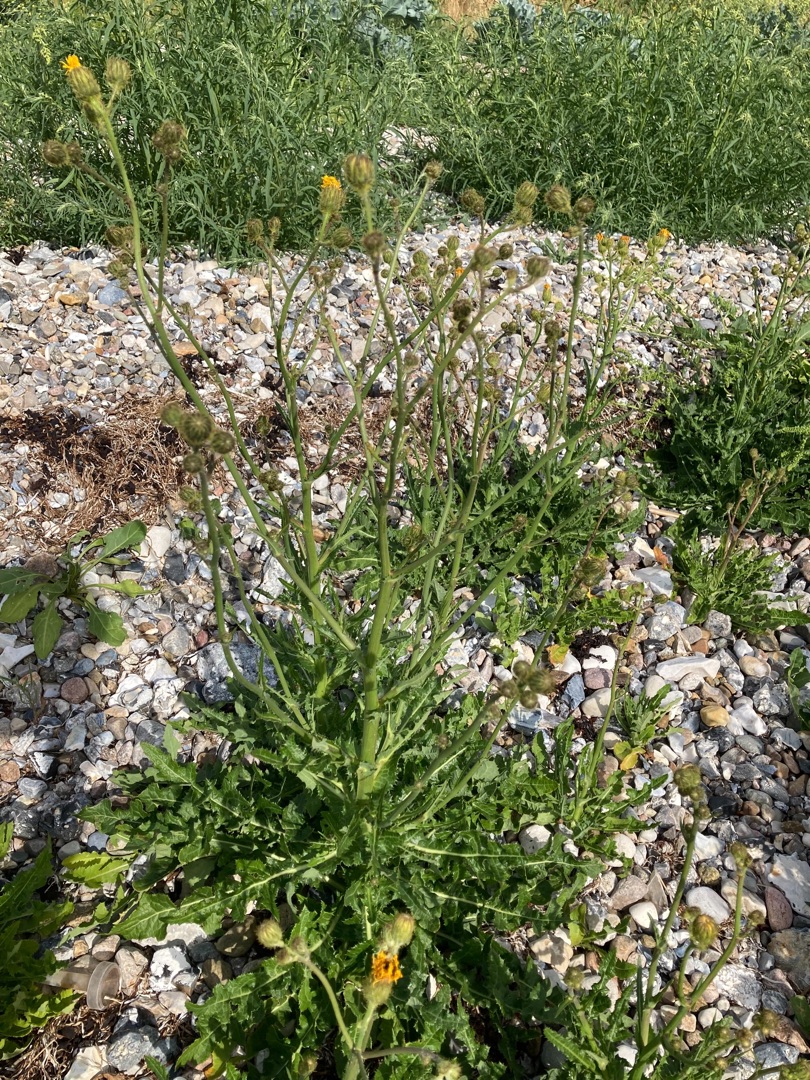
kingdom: Plantae
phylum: Tracheophyta
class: Magnoliopsida
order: Asterales
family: Asteraceae
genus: Sonchus
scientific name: Sonchus arvensis
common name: Ager-svinemælk
